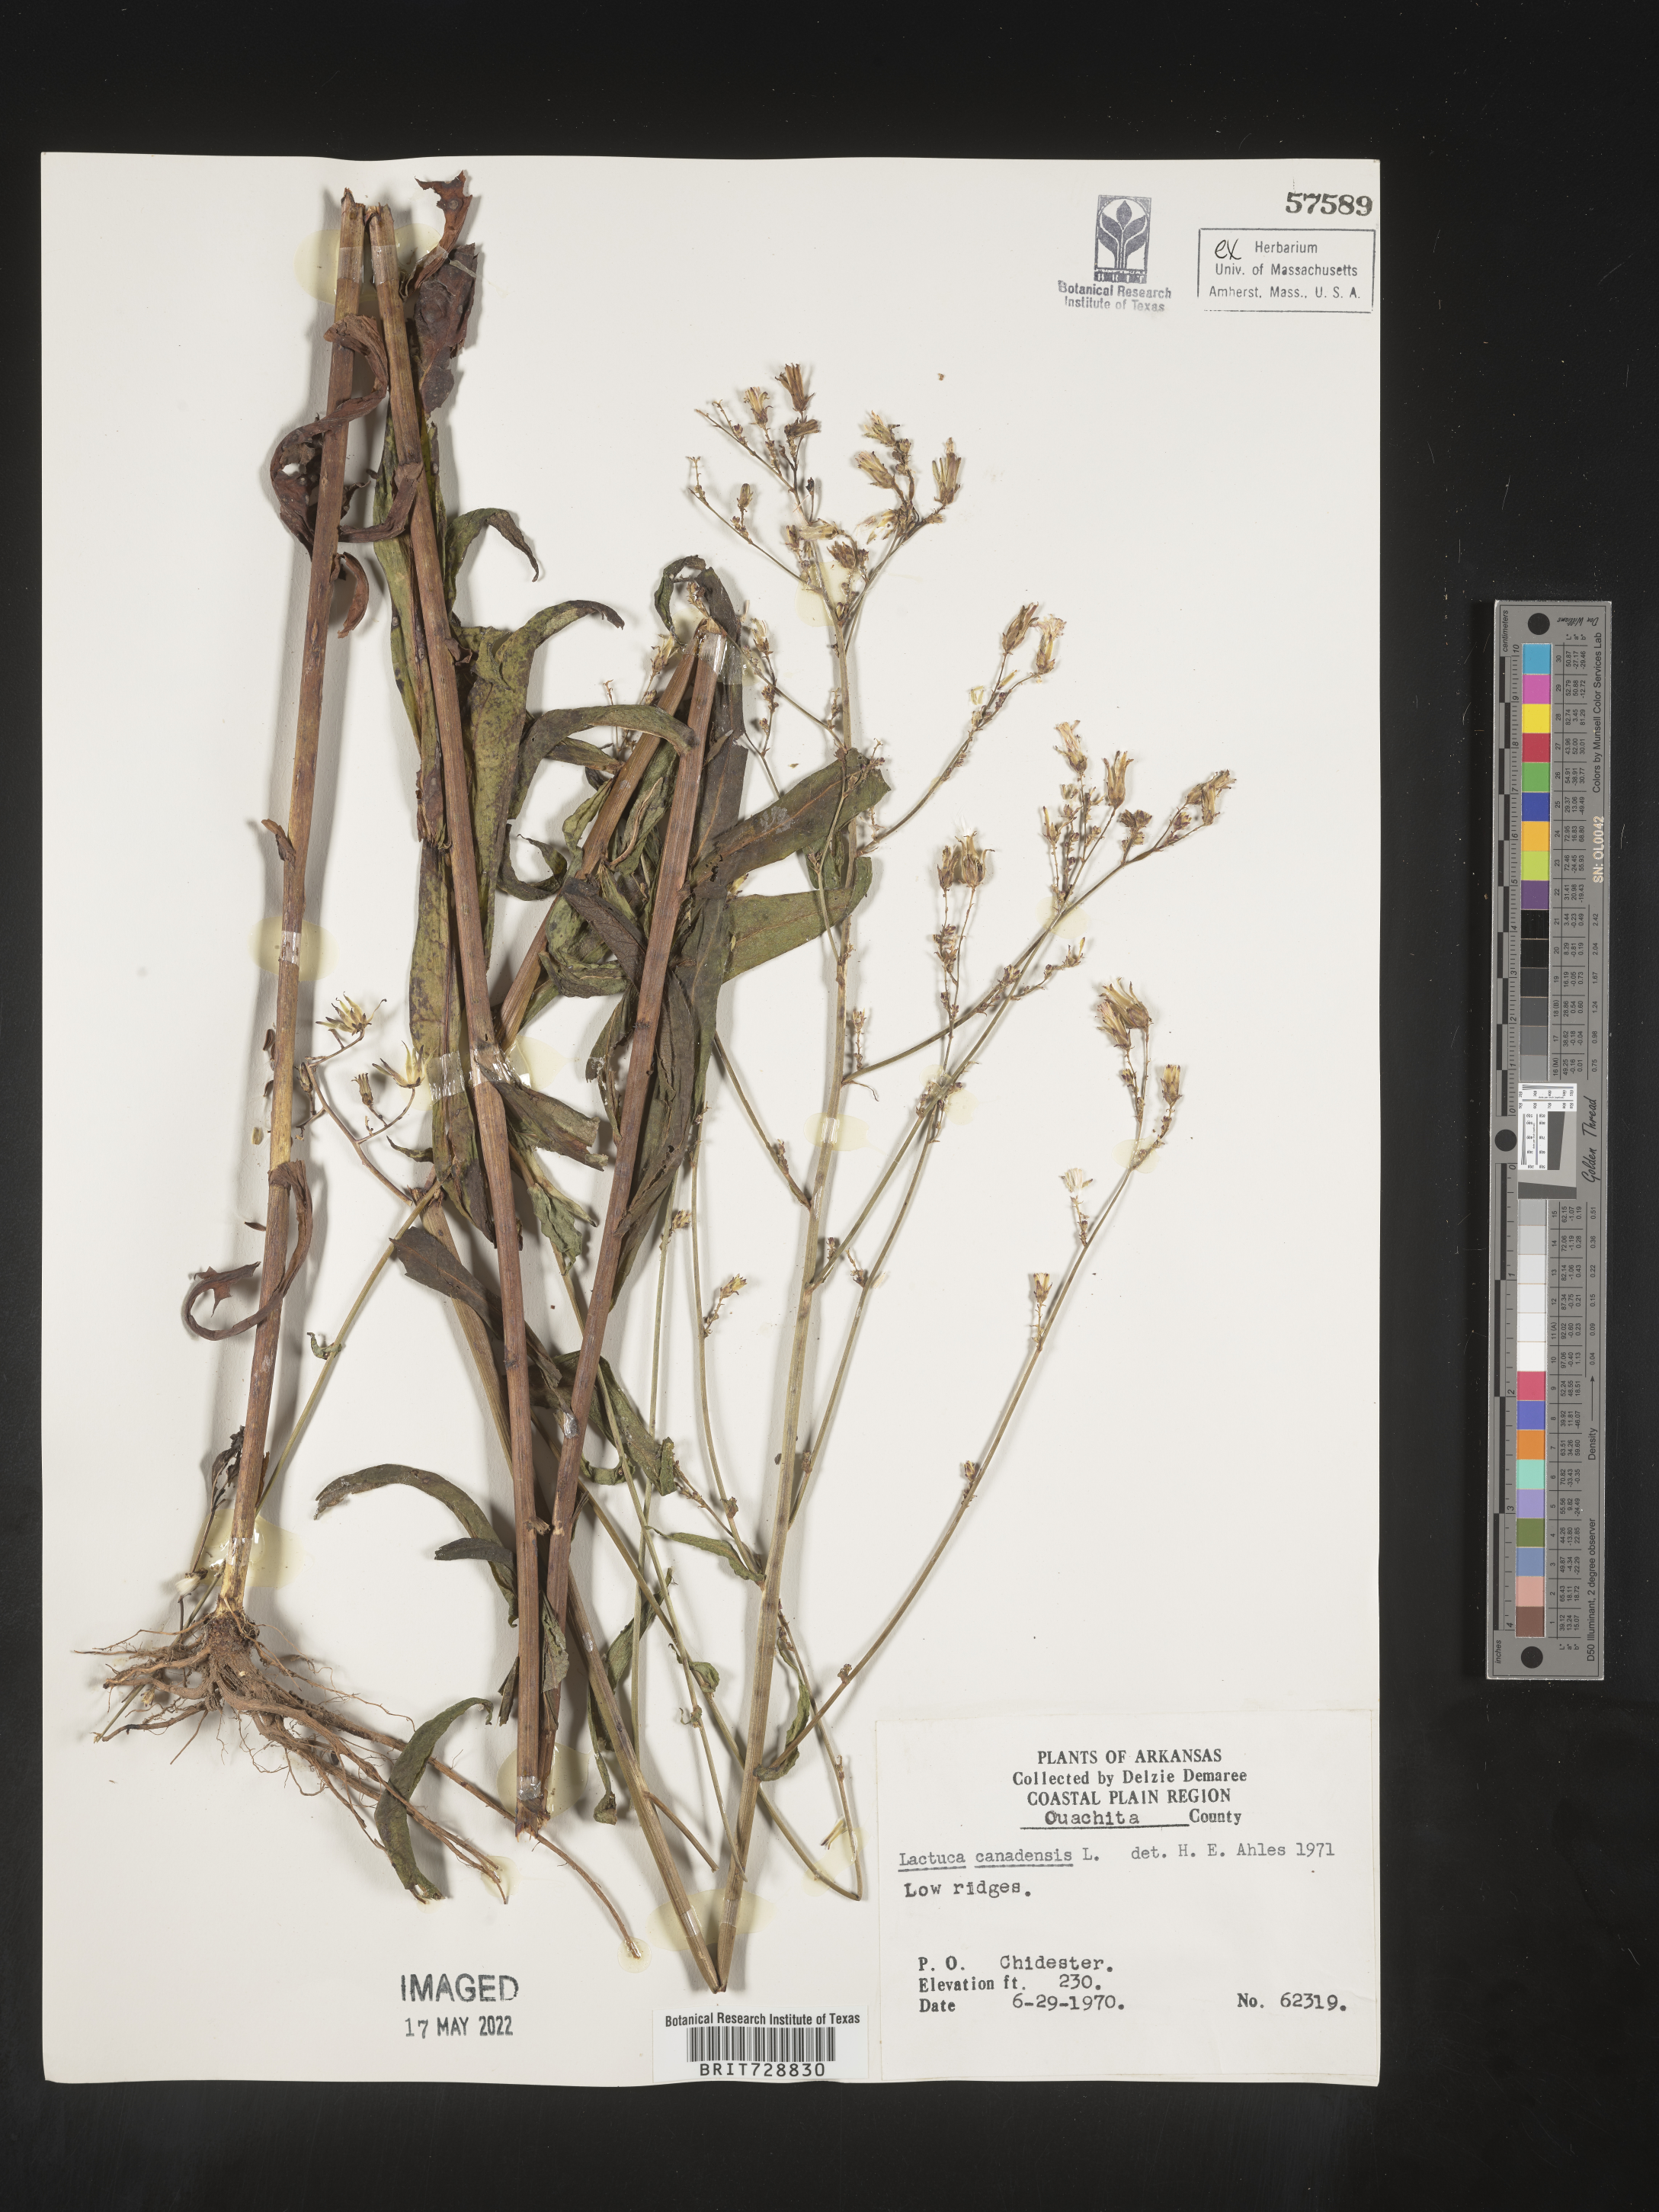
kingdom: Plantae
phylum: Tracheophyta
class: Magnoliopsida
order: Asterales
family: Asteraceae
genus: Lactuca
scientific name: Lactuca canadensis
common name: Canada lettuce
